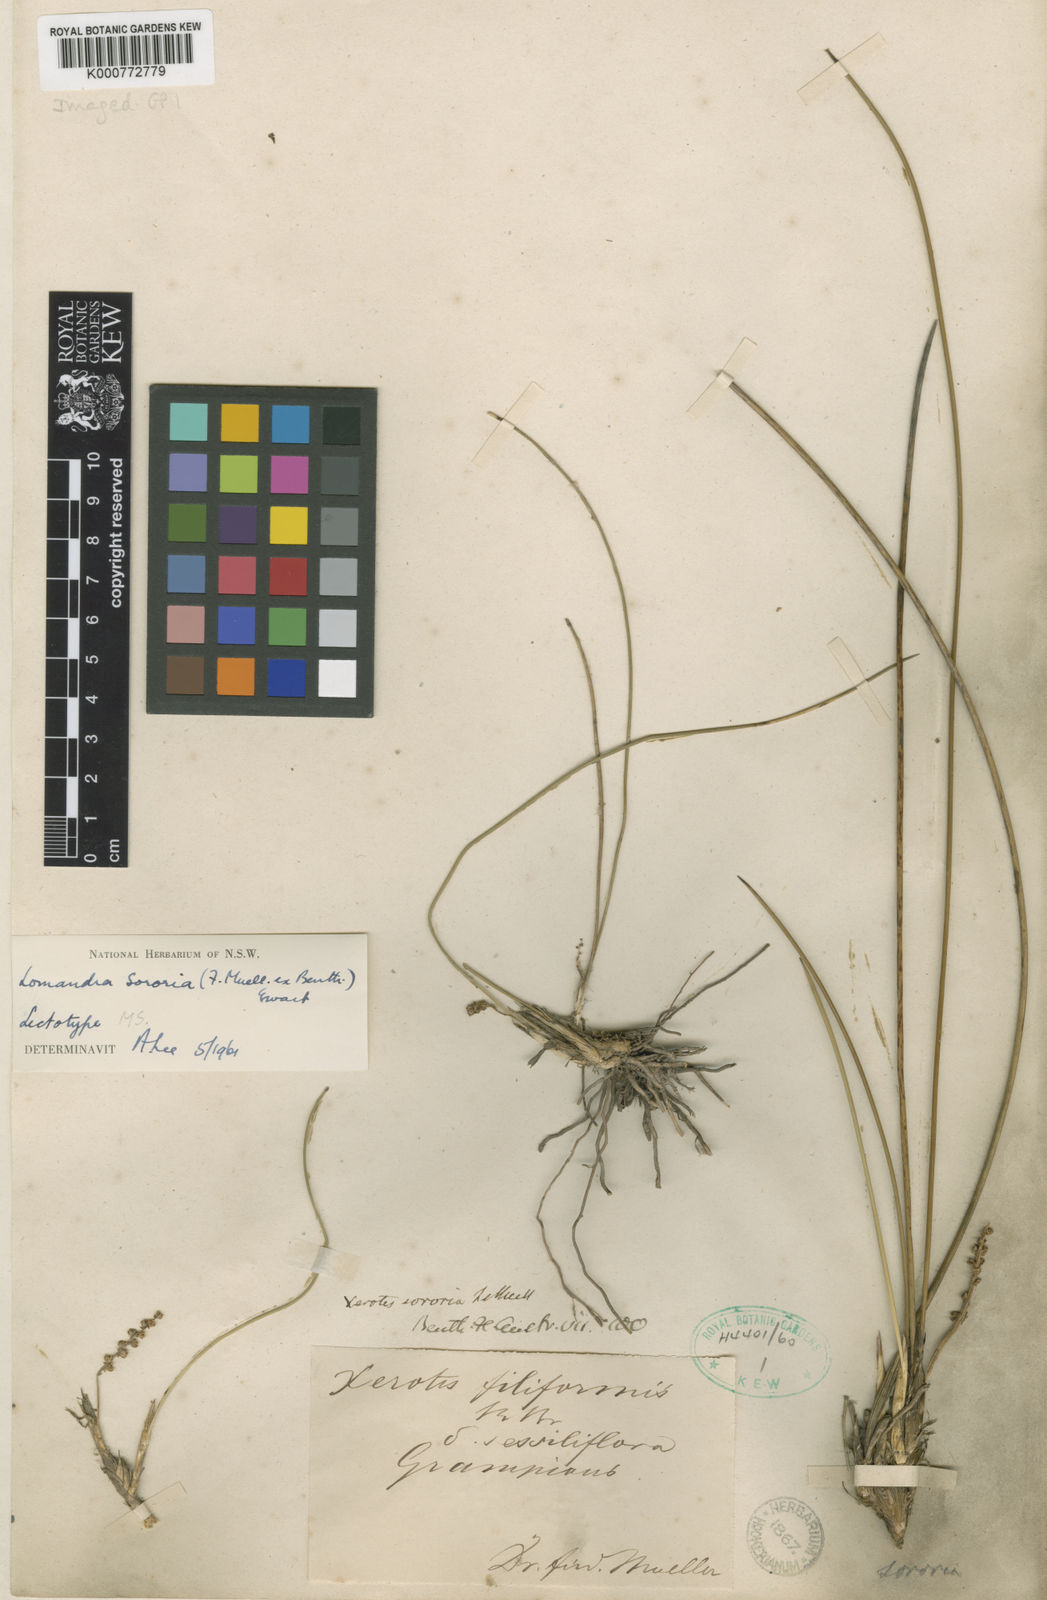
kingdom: Plantae
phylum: Tracheophyta
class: Liliopsida
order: Asparagales
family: Asparagaceae
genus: Lomandra
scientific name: Lomandra sororia
